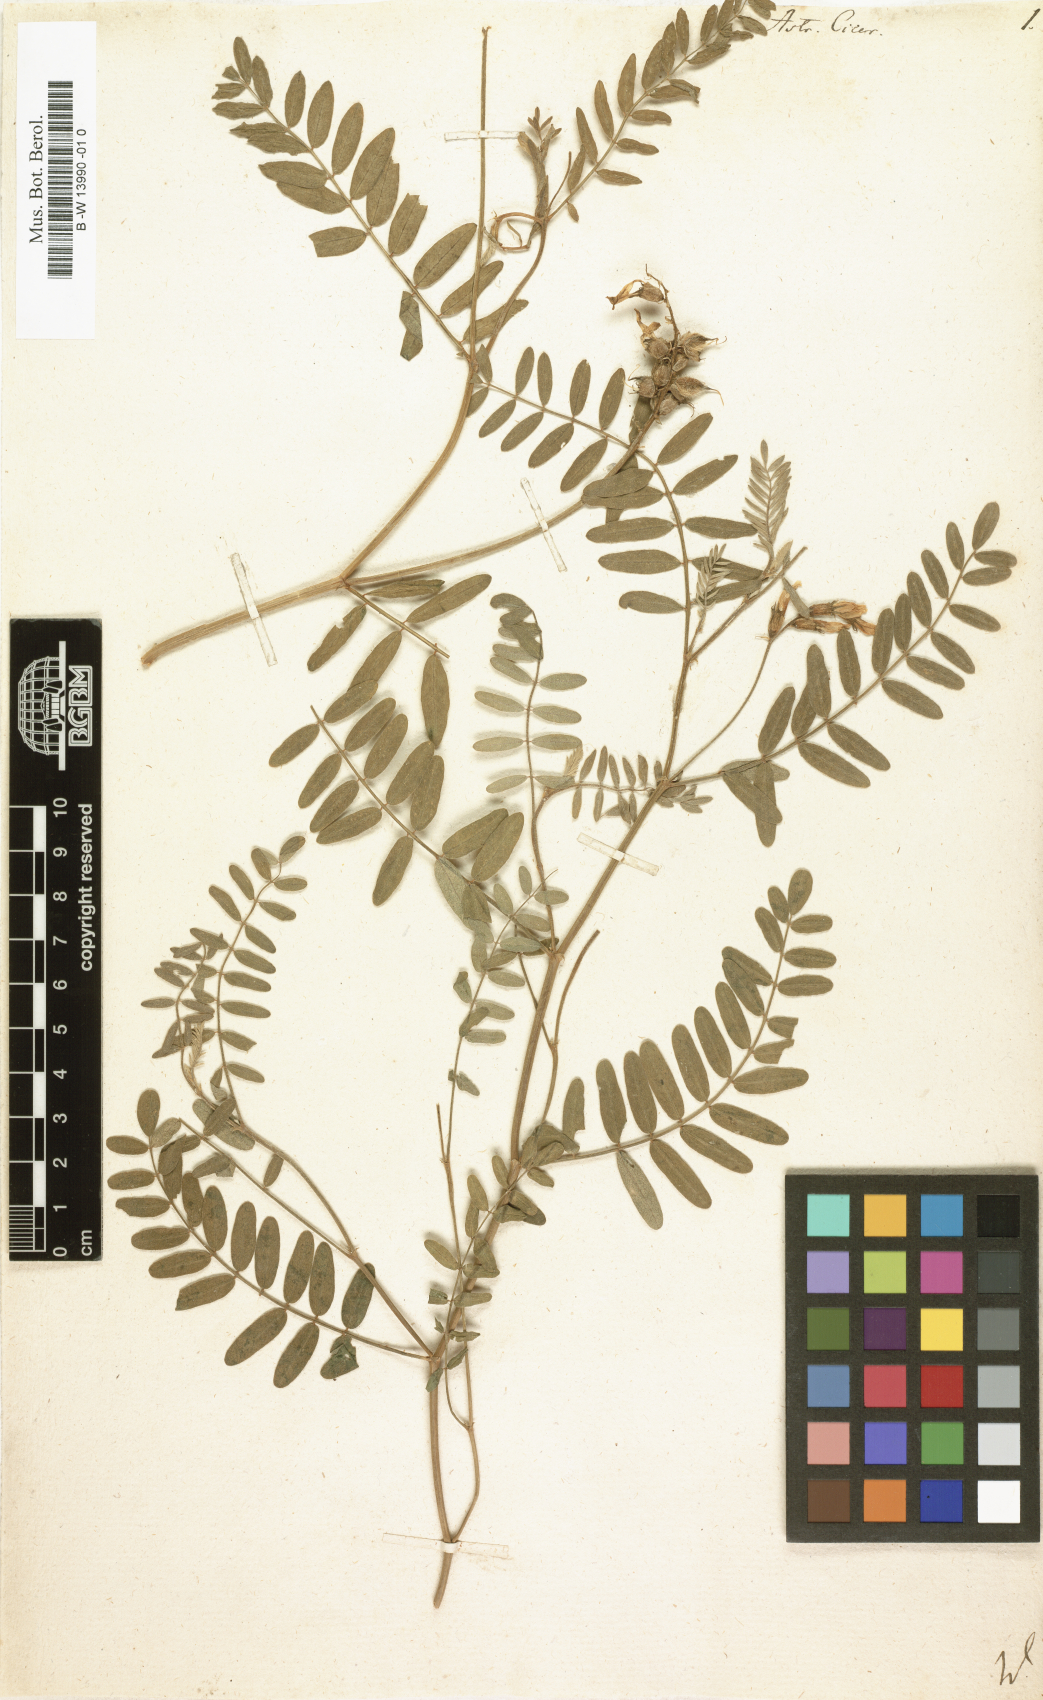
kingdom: Plantae
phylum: Tracheophyta
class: Magnoliopsida
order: Fabales
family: Fabaceae
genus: Astragalus
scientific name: Astragalus cicer
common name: Chick-pea milk-vetch
